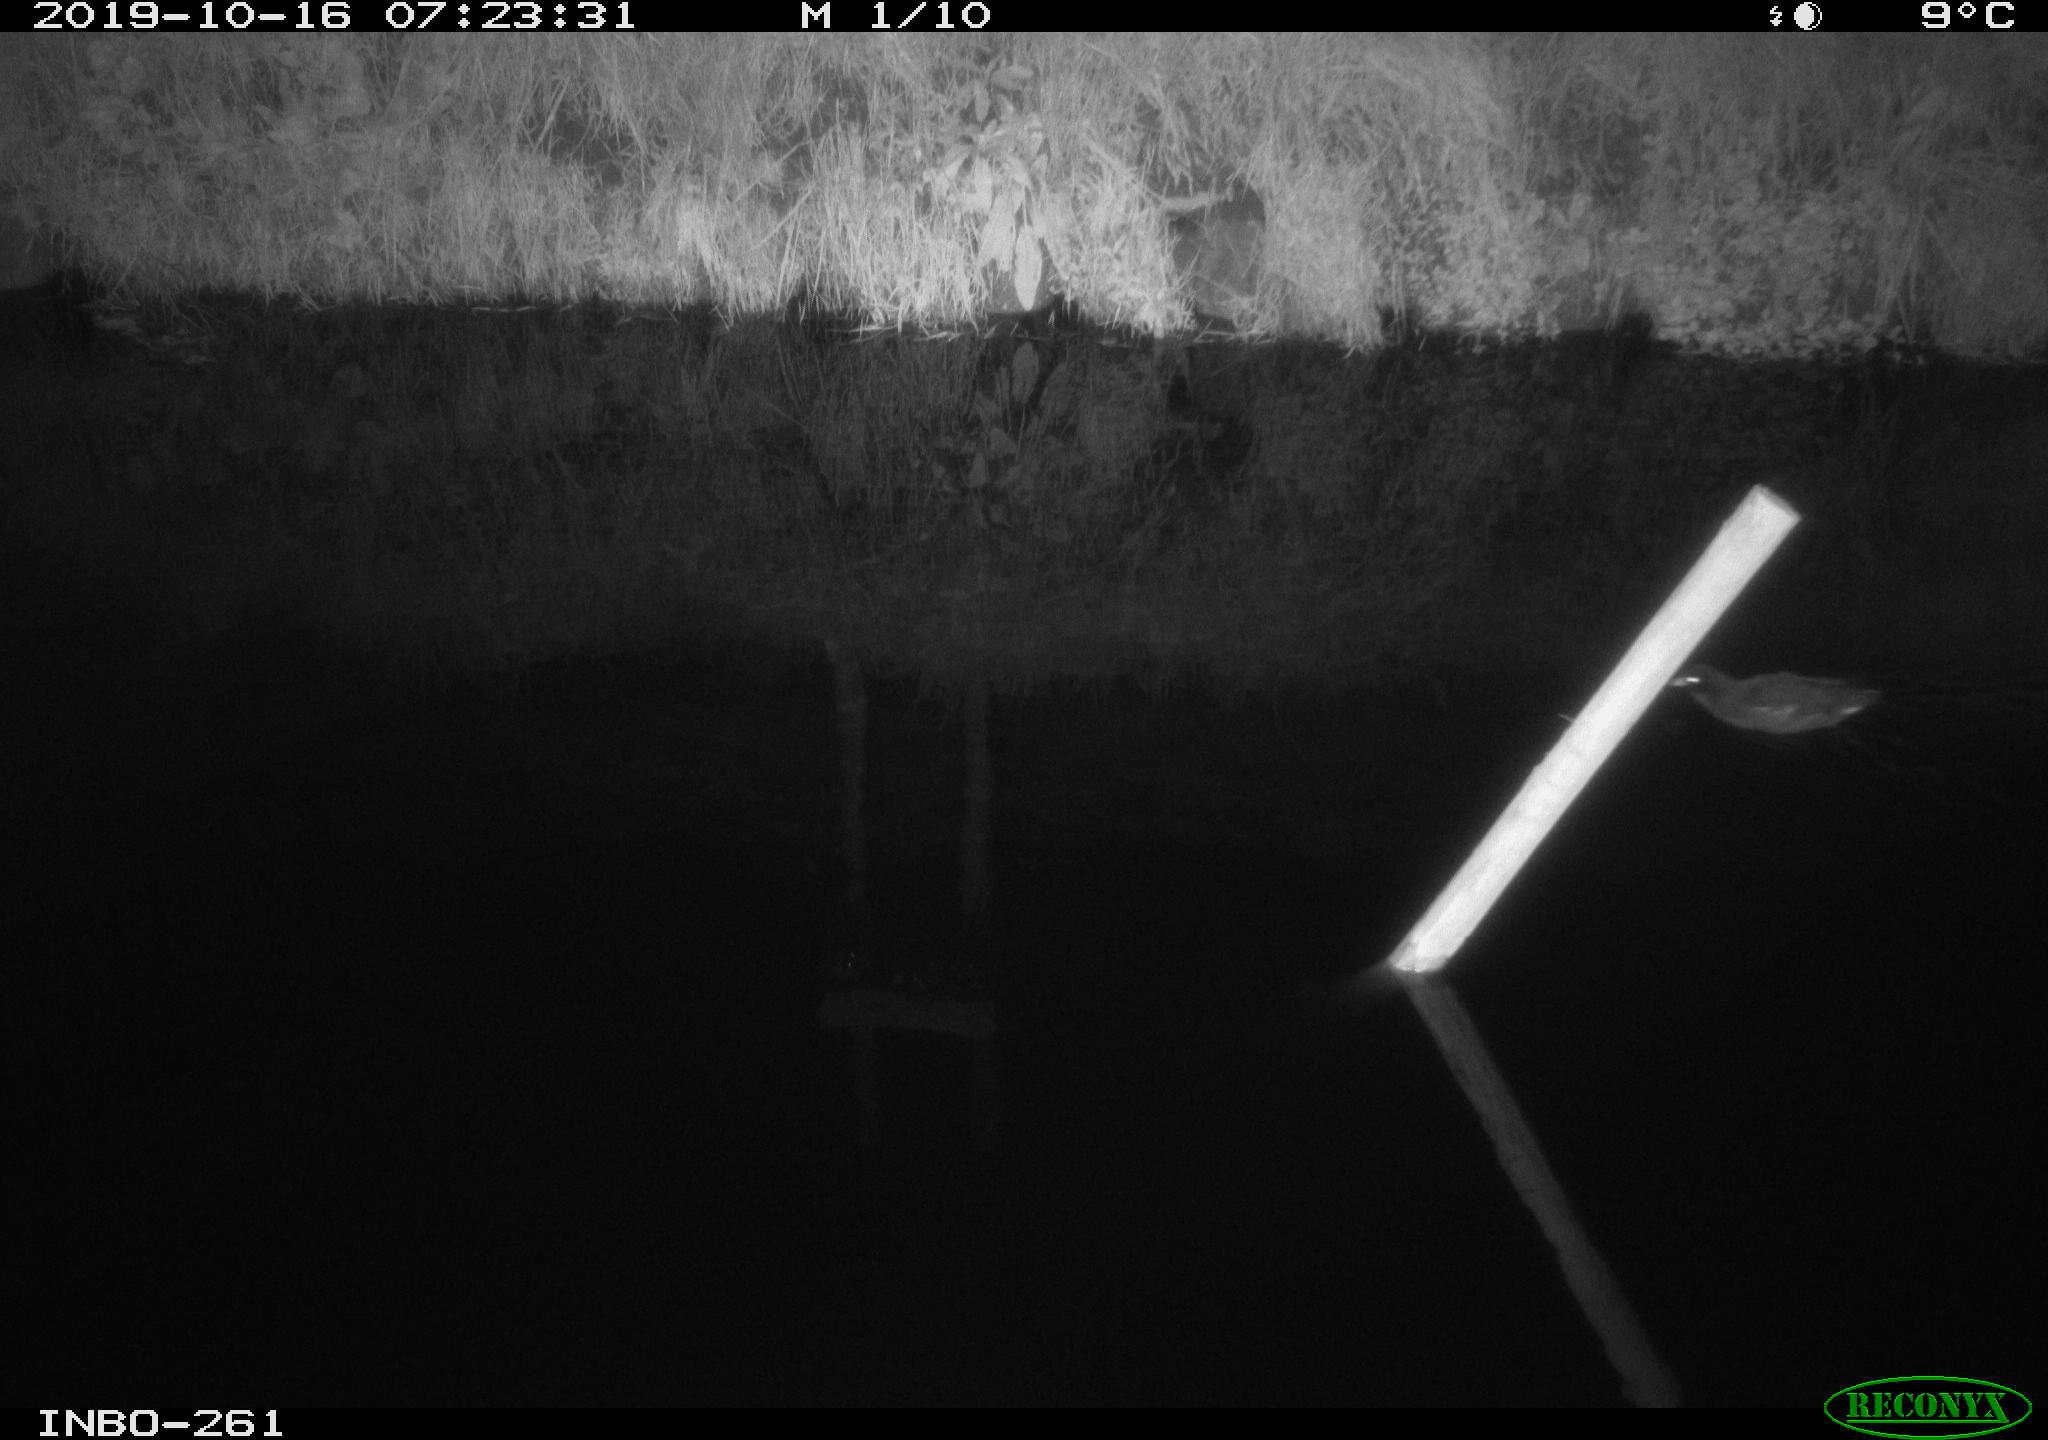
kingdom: Animalia
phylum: Chordata
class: Aves
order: Gruiformes
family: Rallidae
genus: Gallinula
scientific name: Gallinula chloropus
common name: Common moorhen
